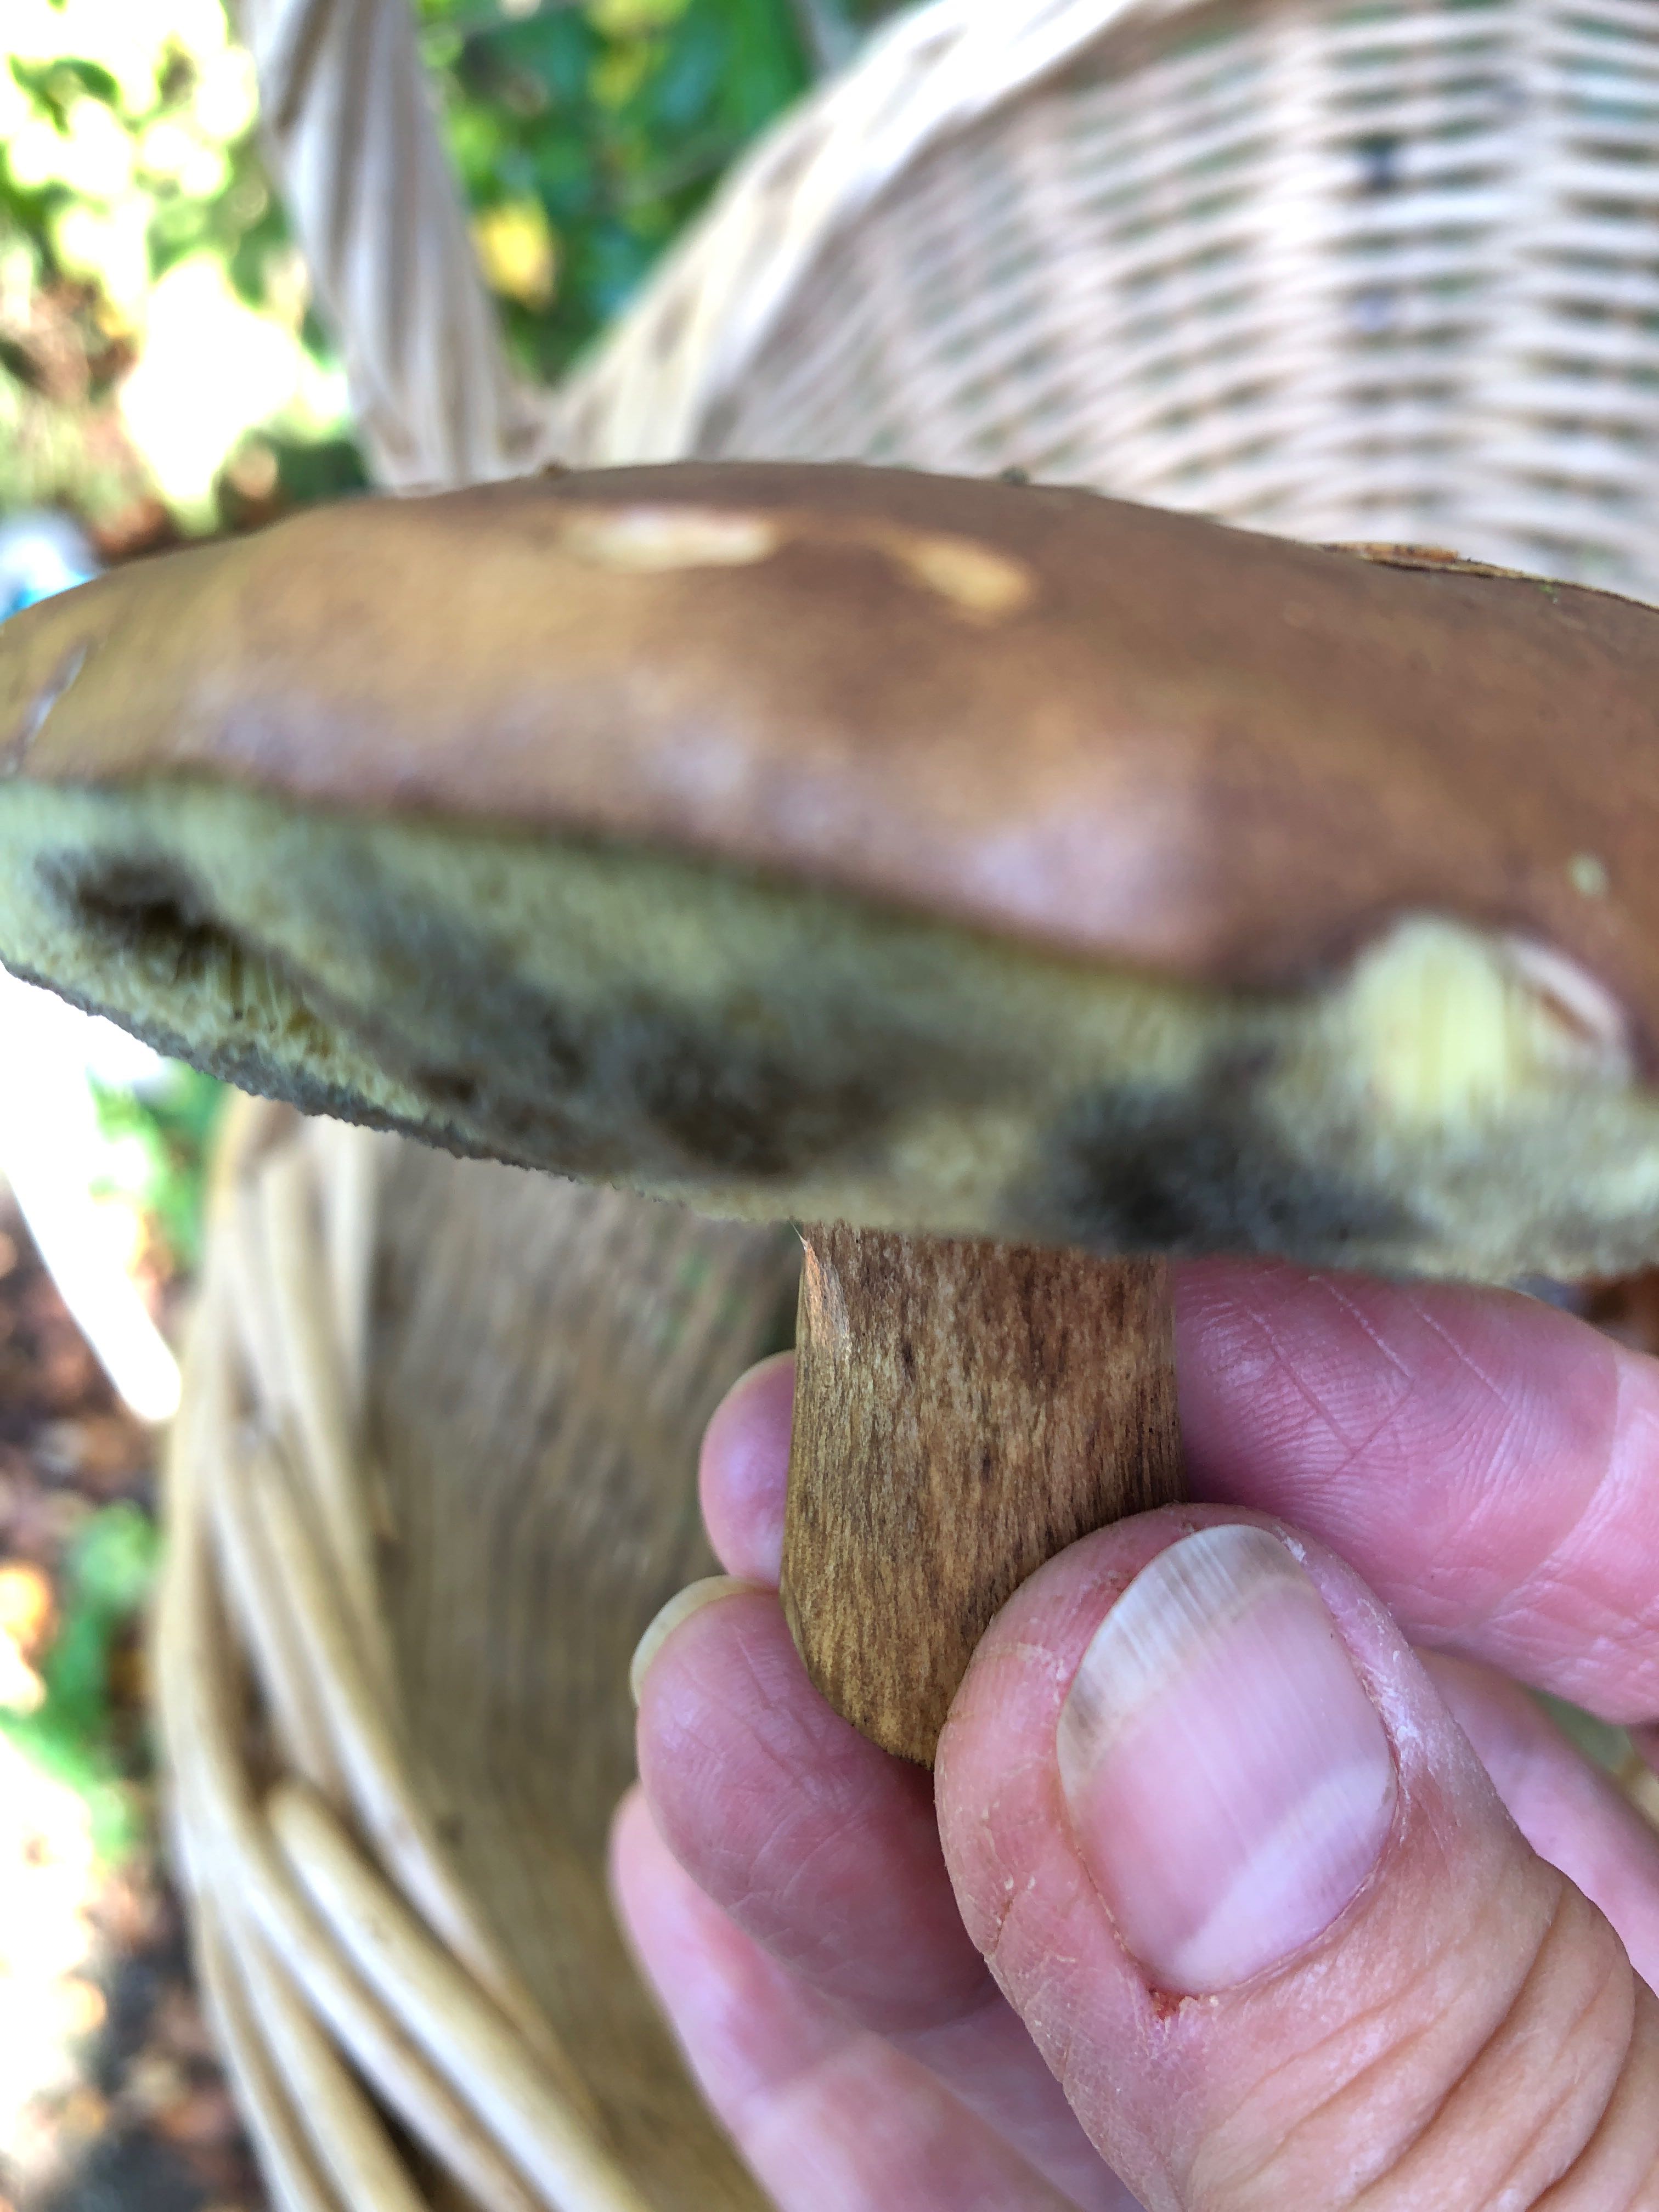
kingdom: Fungi
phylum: Basidiomycota
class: Agaricomycetes
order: Boletales
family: Boletaceae
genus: Imleria
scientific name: Imleria badia
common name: brunstokket rørhat
